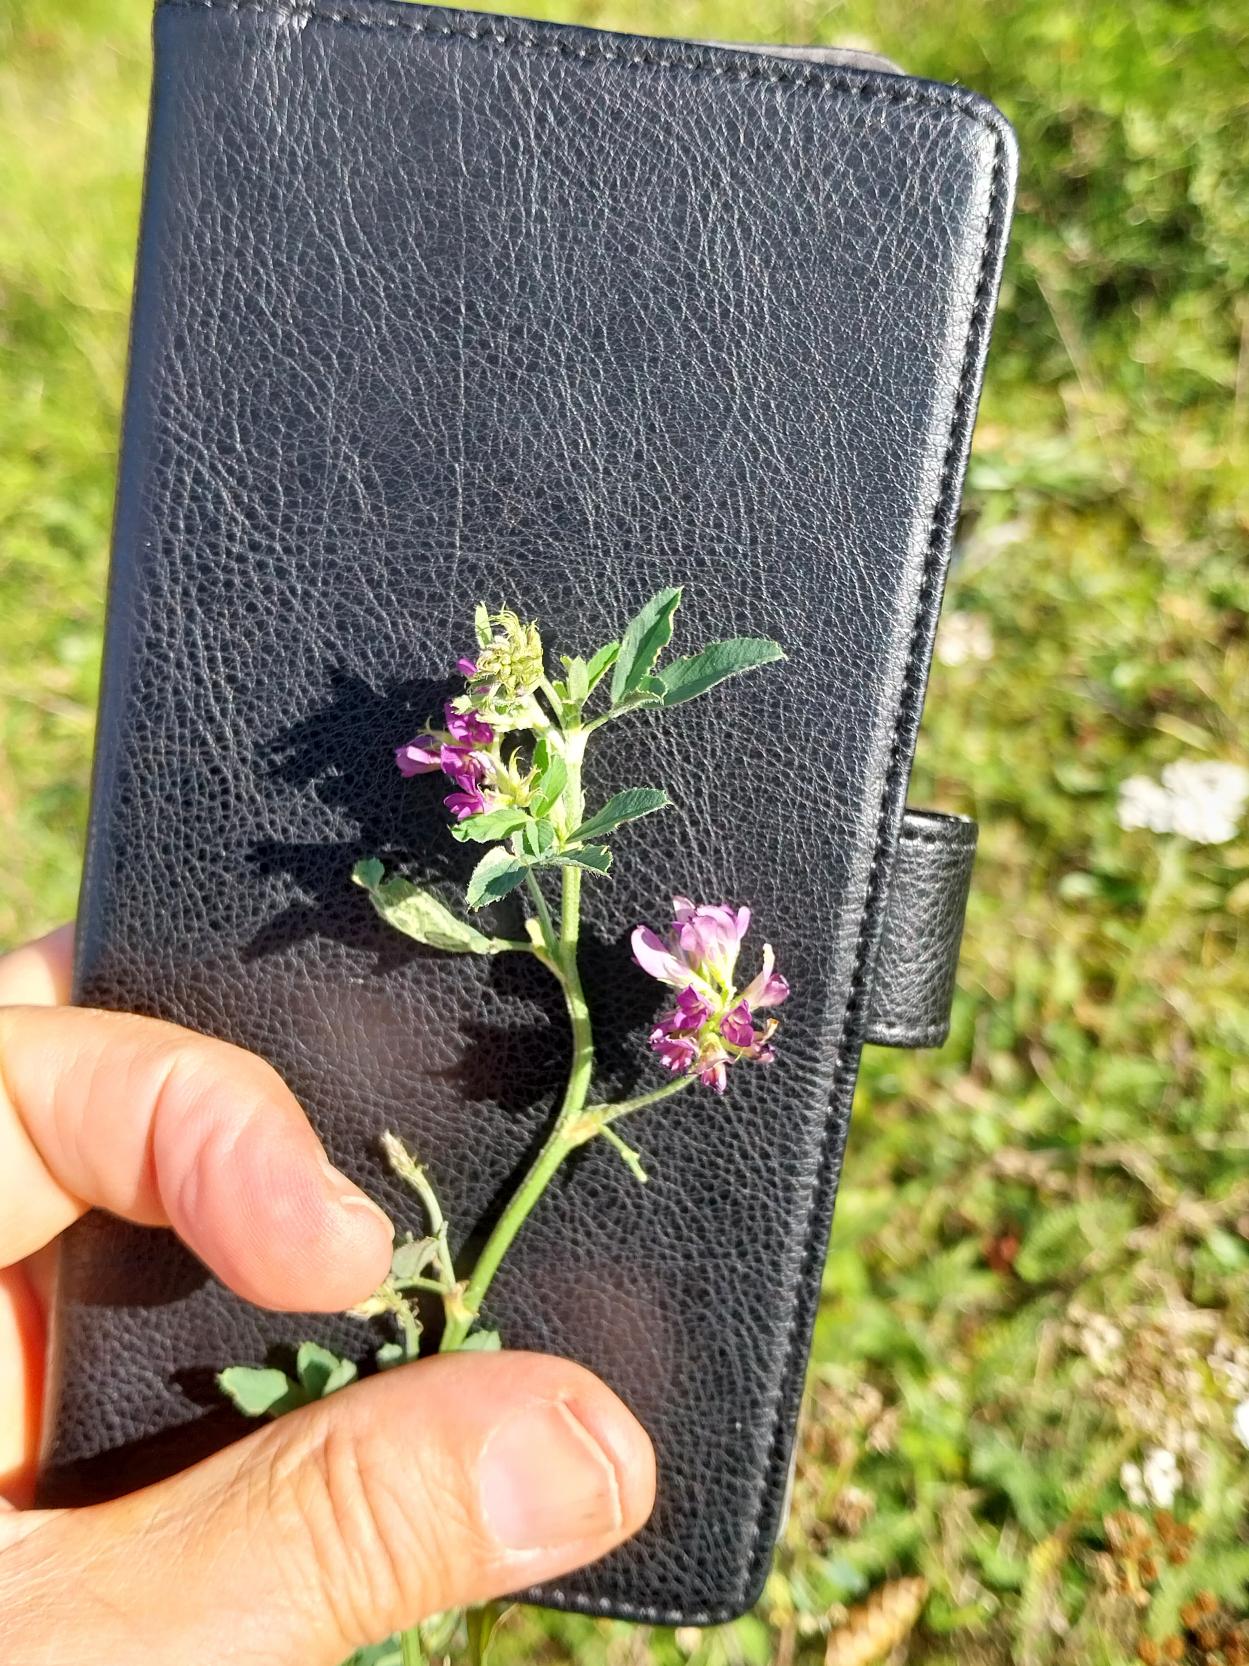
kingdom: Plantae
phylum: Tracheophyta
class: Magnoliopsida
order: Fabales
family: Fabaceae
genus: Medicago
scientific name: Medicago sativa
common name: Foderlucerne
